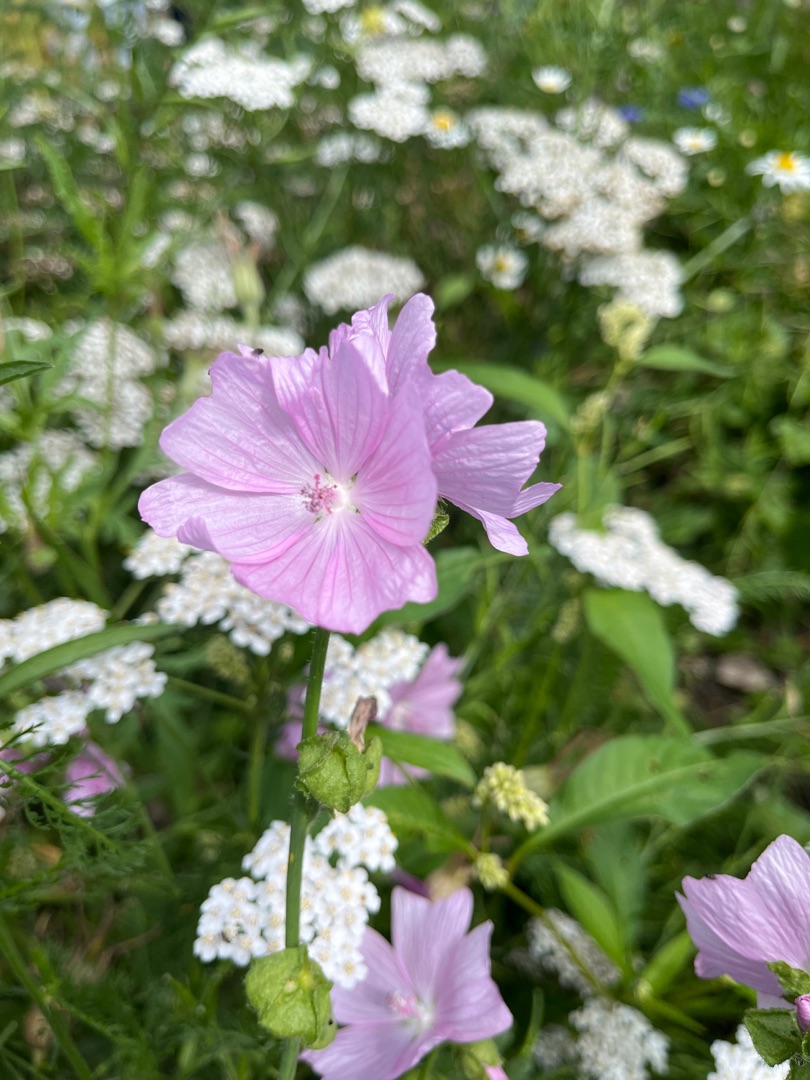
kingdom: Plantae
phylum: Tracheophyta
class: Magnoliopsida
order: Malvales
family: Malvaceae
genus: Malva
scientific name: Malva moschata
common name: Moskus-katost
